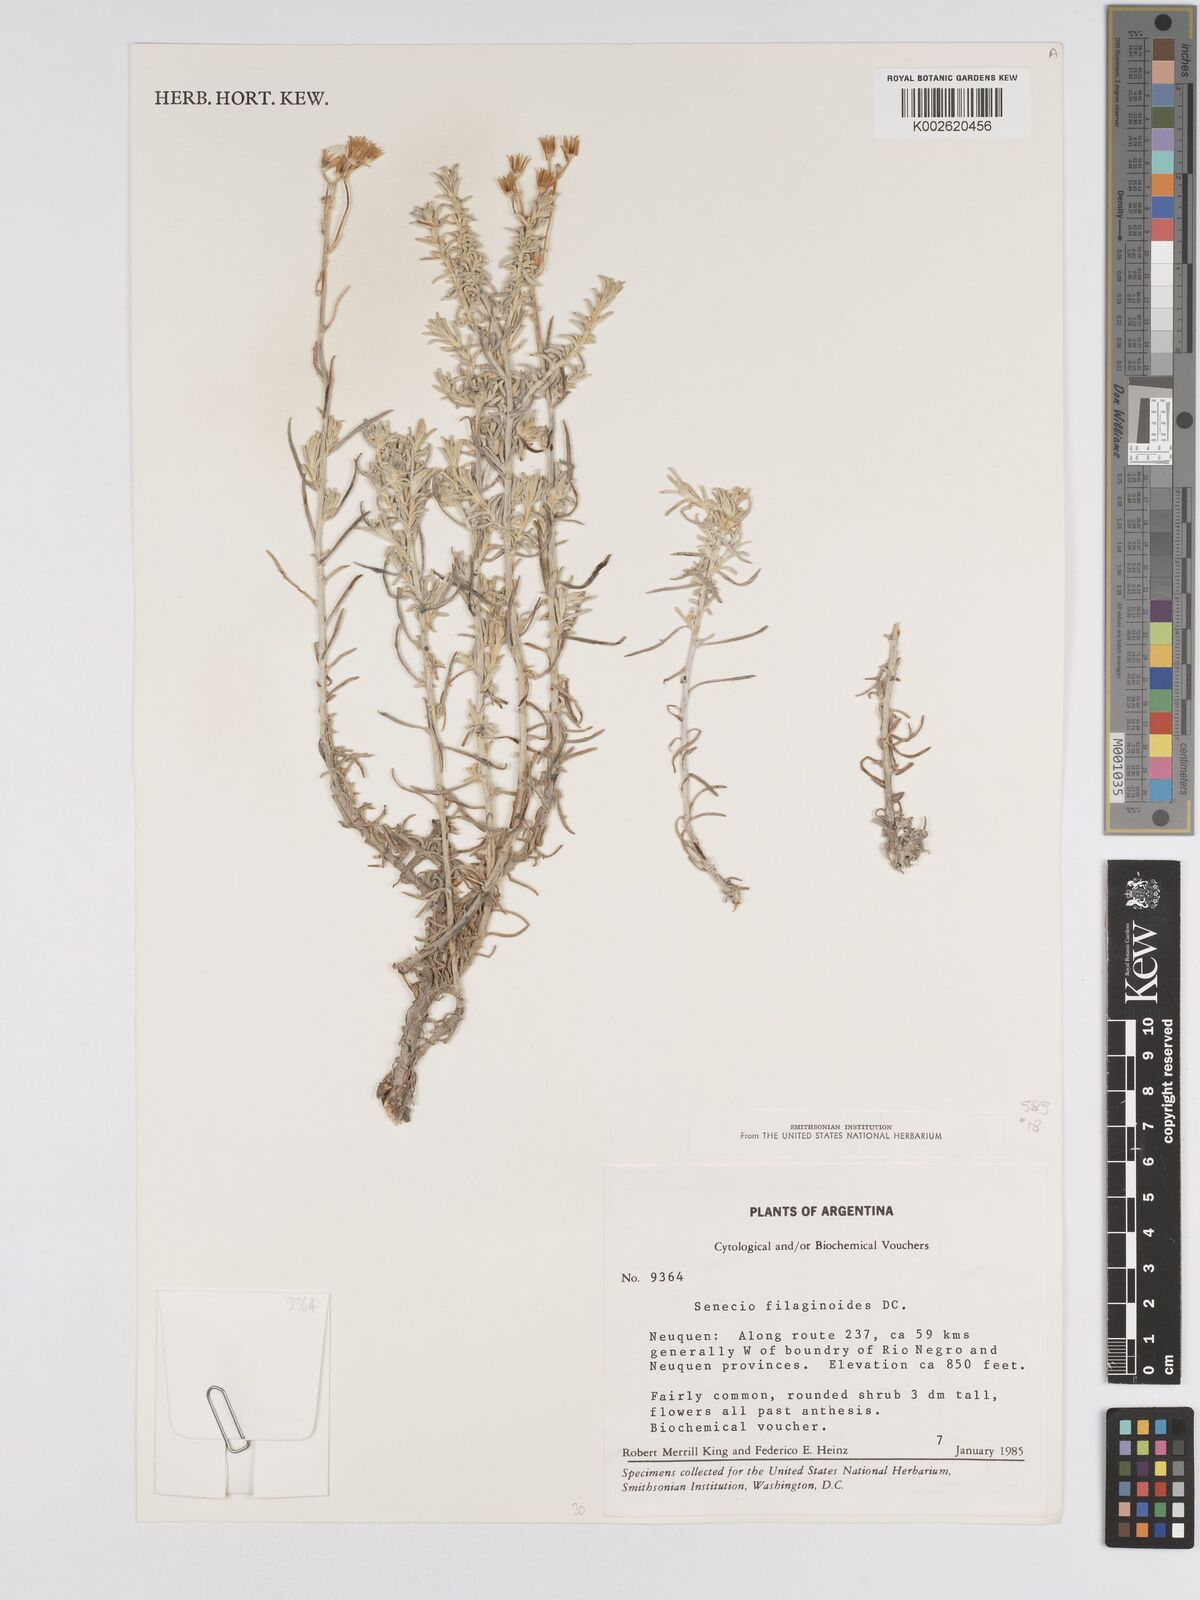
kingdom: Plantae
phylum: Tracheophyta
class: Magnoliopsida
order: Asterales
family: Asteraceae
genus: Senecio
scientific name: Senecio filaginoides
